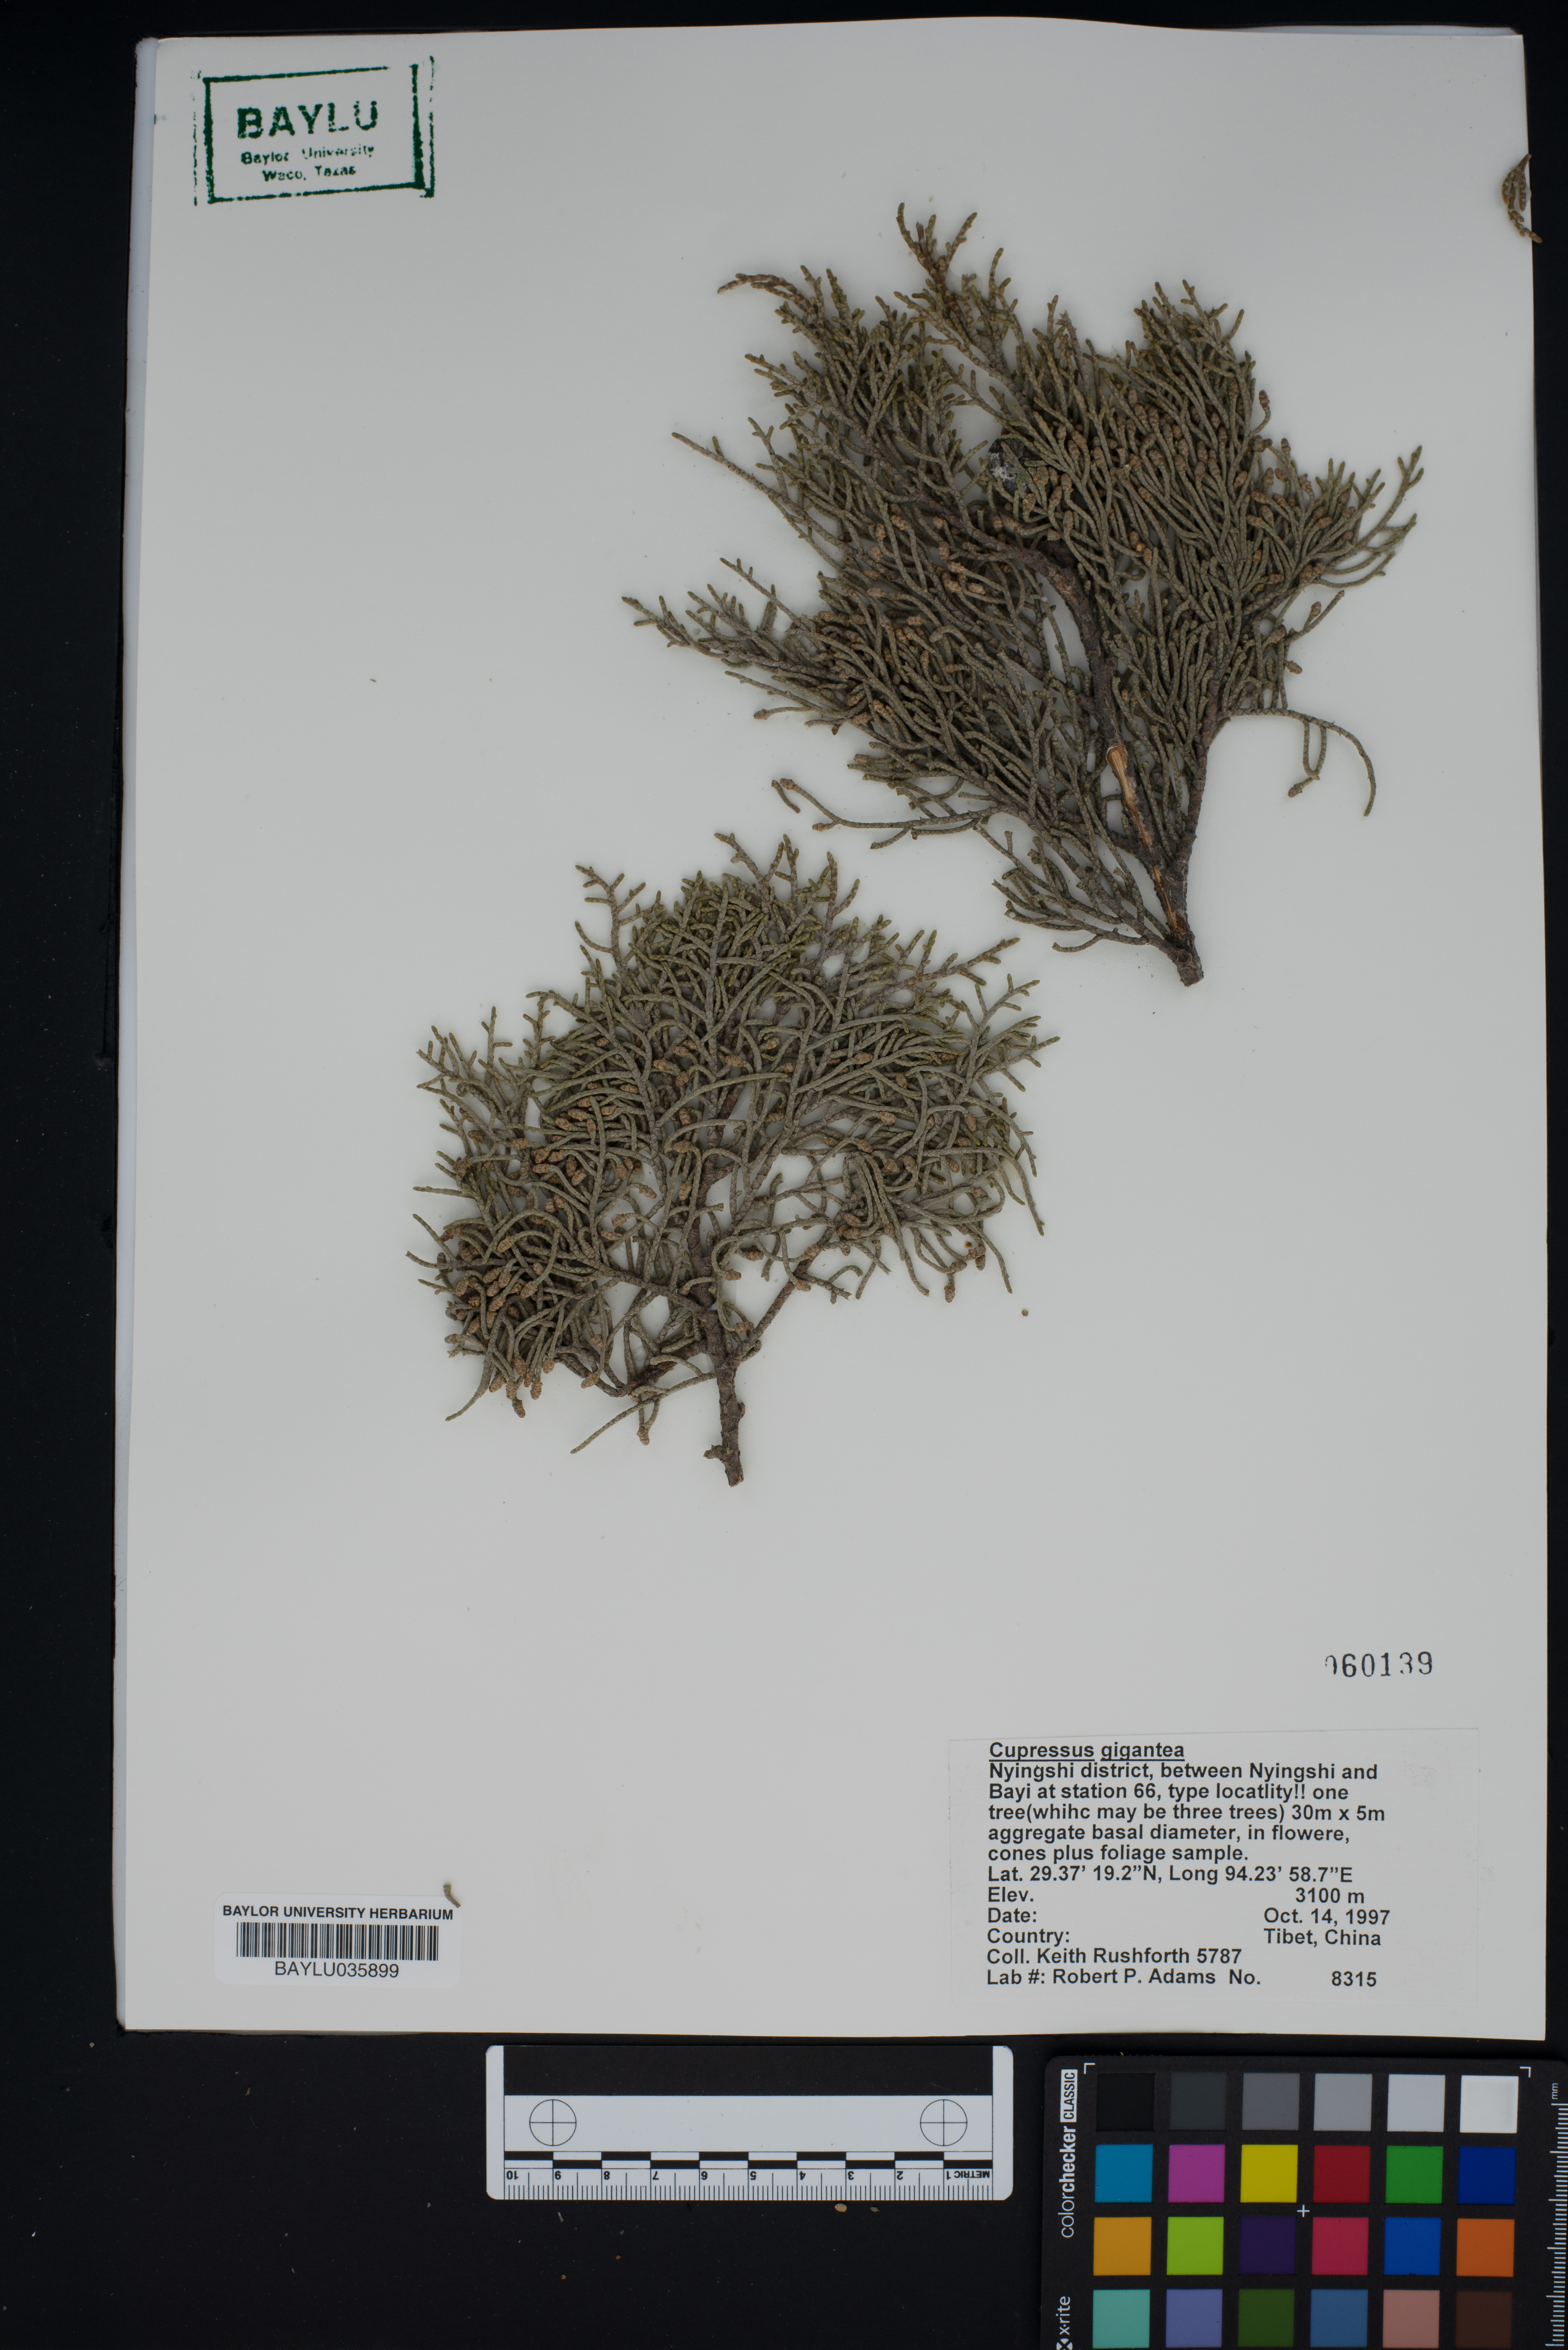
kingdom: Plantae
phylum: Tracheophyta
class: Pinopsida
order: Pinales
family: Cupressaceae
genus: Cupressus
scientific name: Cupressus torulosa
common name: Himalayan cypress
